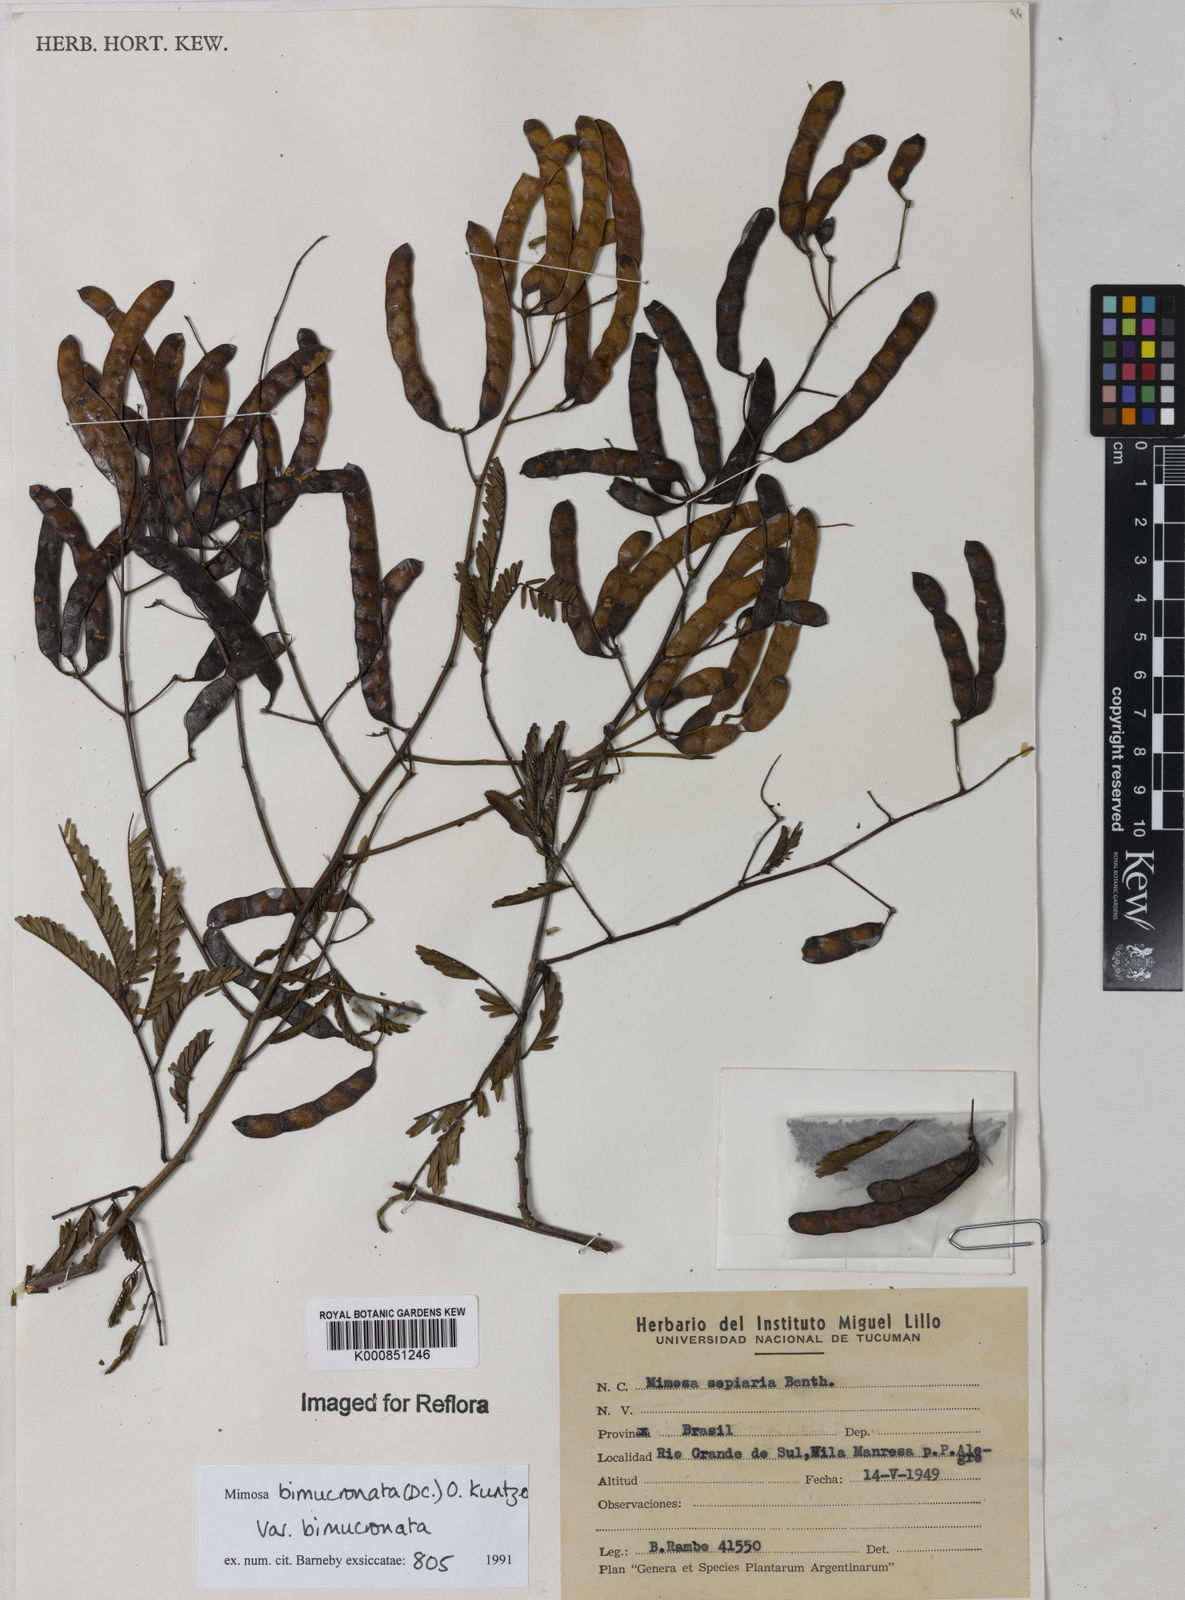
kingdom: Plantae
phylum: Tracheophyta
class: Magnoliopsida
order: Fabales
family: Fabaceae
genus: Mimosa
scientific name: Mimosa bimucronata
